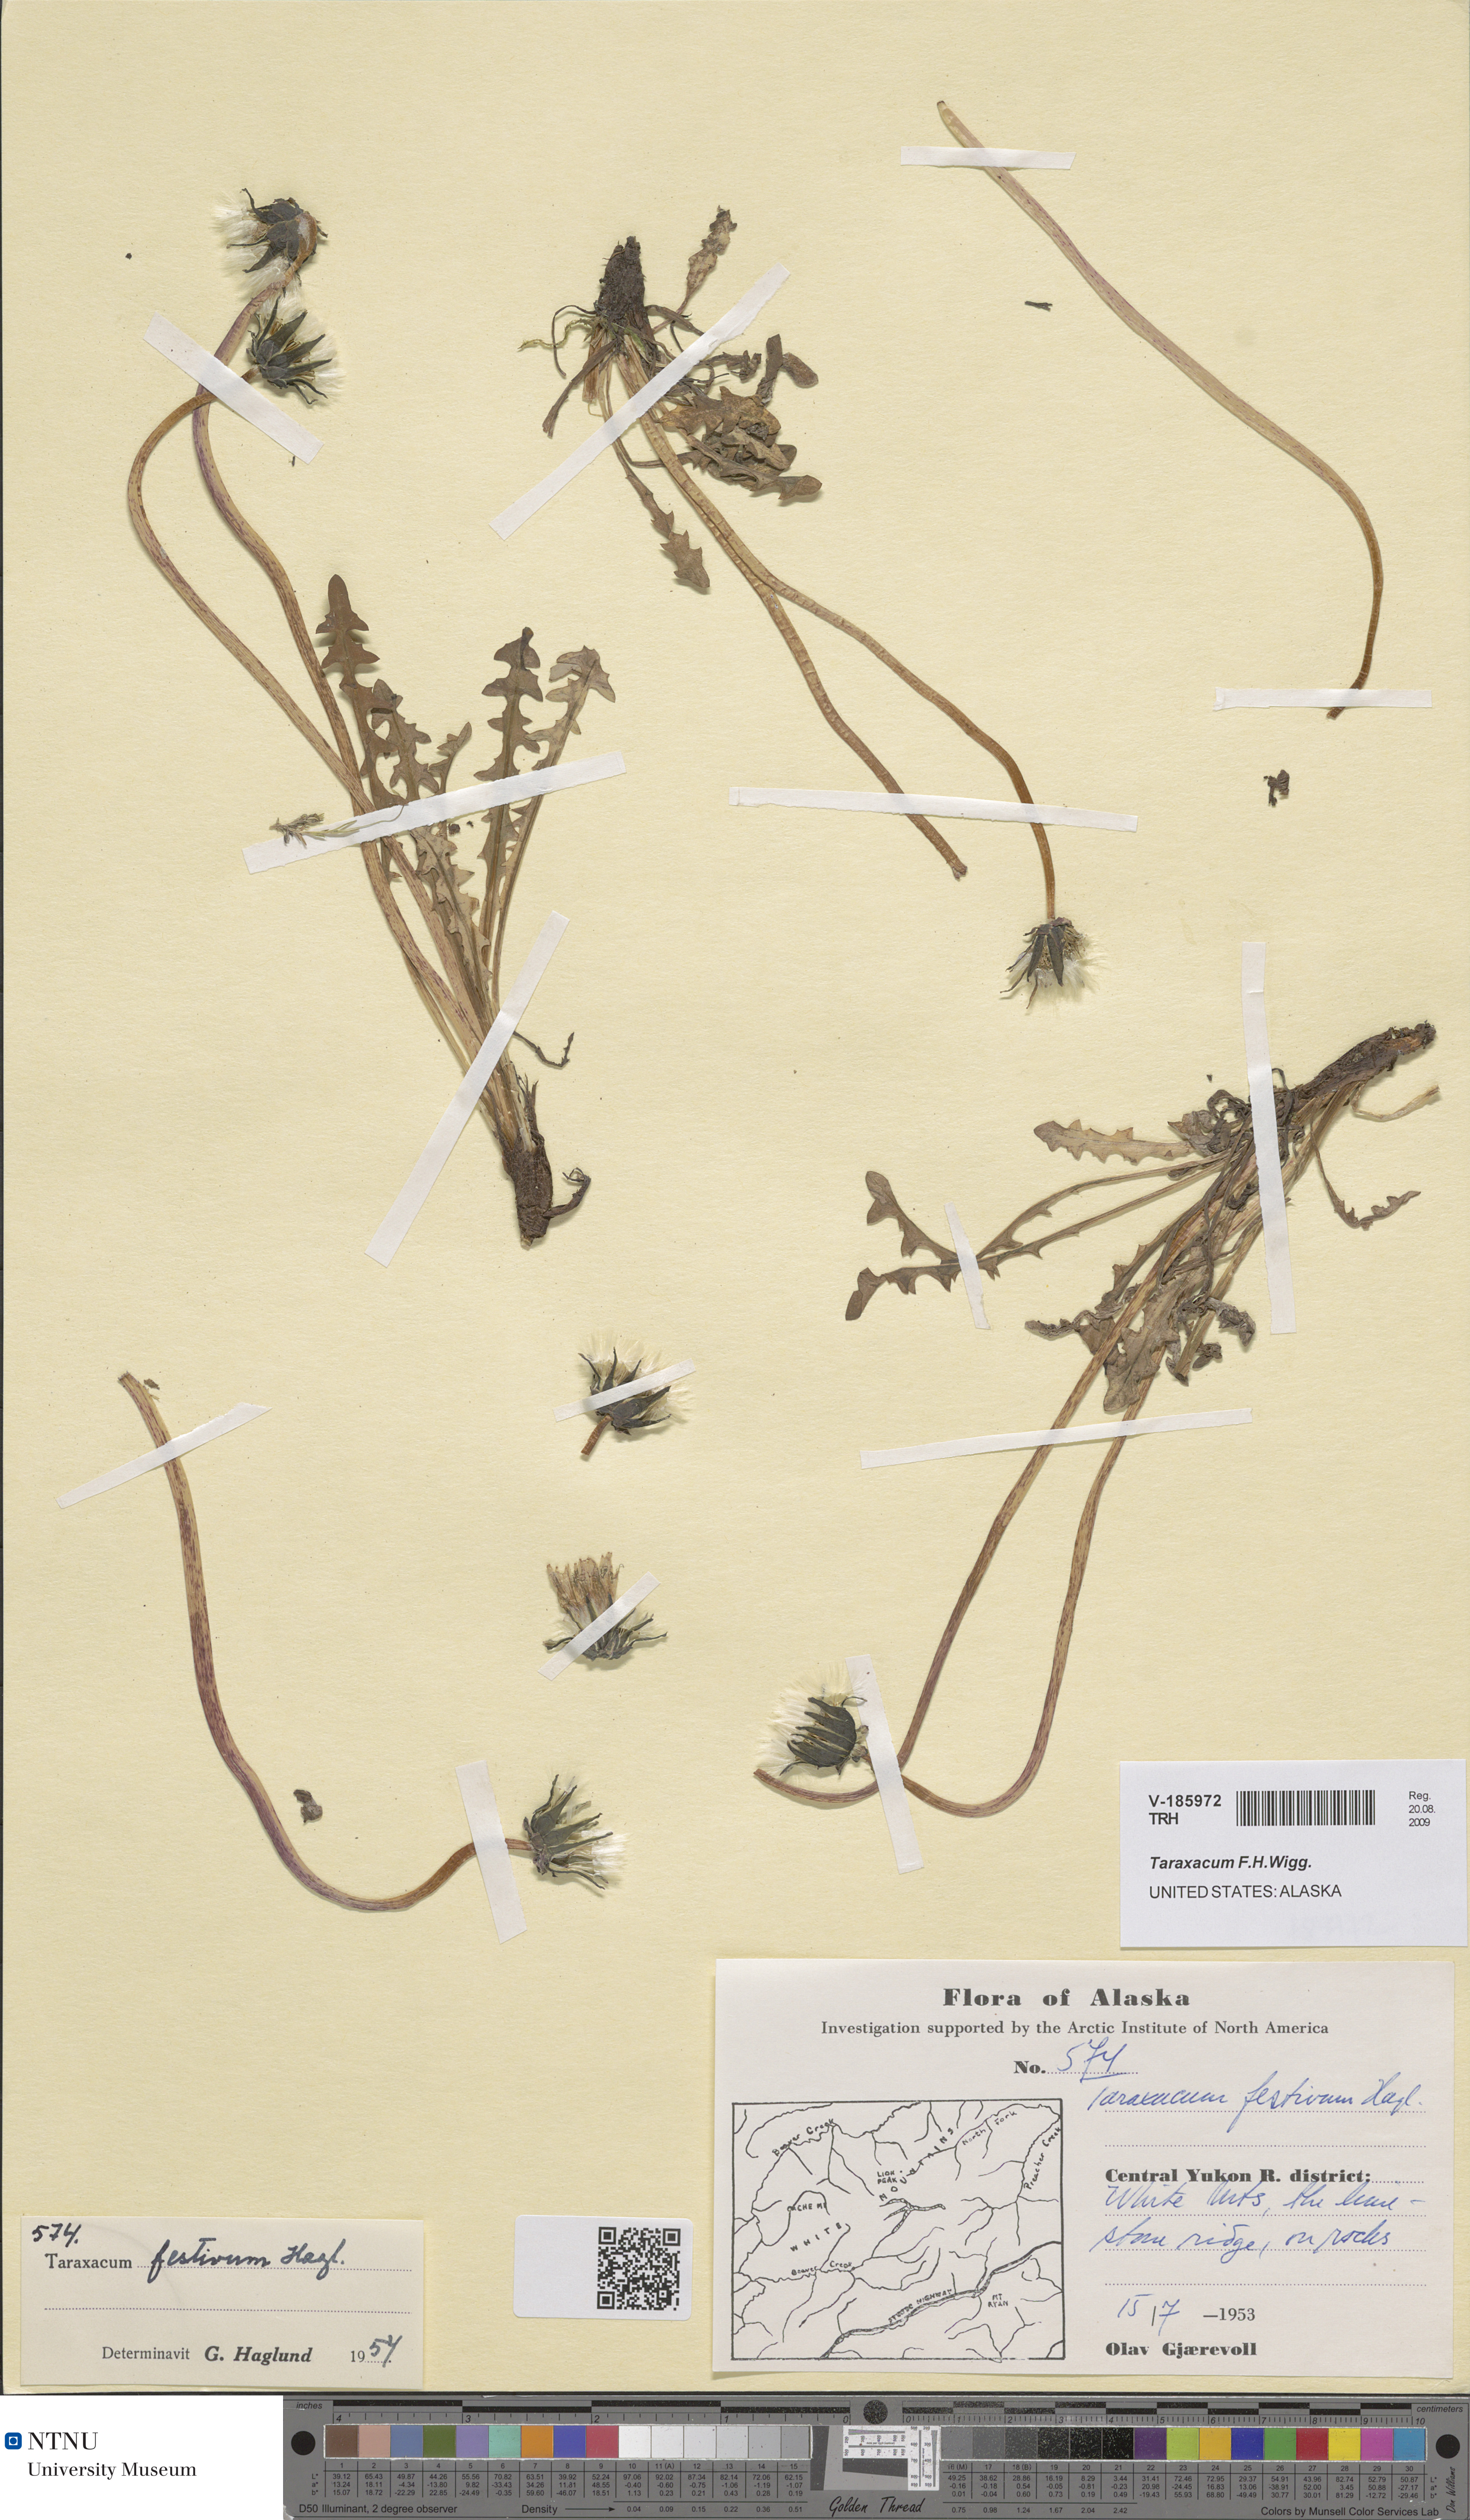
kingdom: Plantae
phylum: Tracheophyta
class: Magnoliopsida
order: Asterales
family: Asteraceae
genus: Taraxacum
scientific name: Taraxacum
